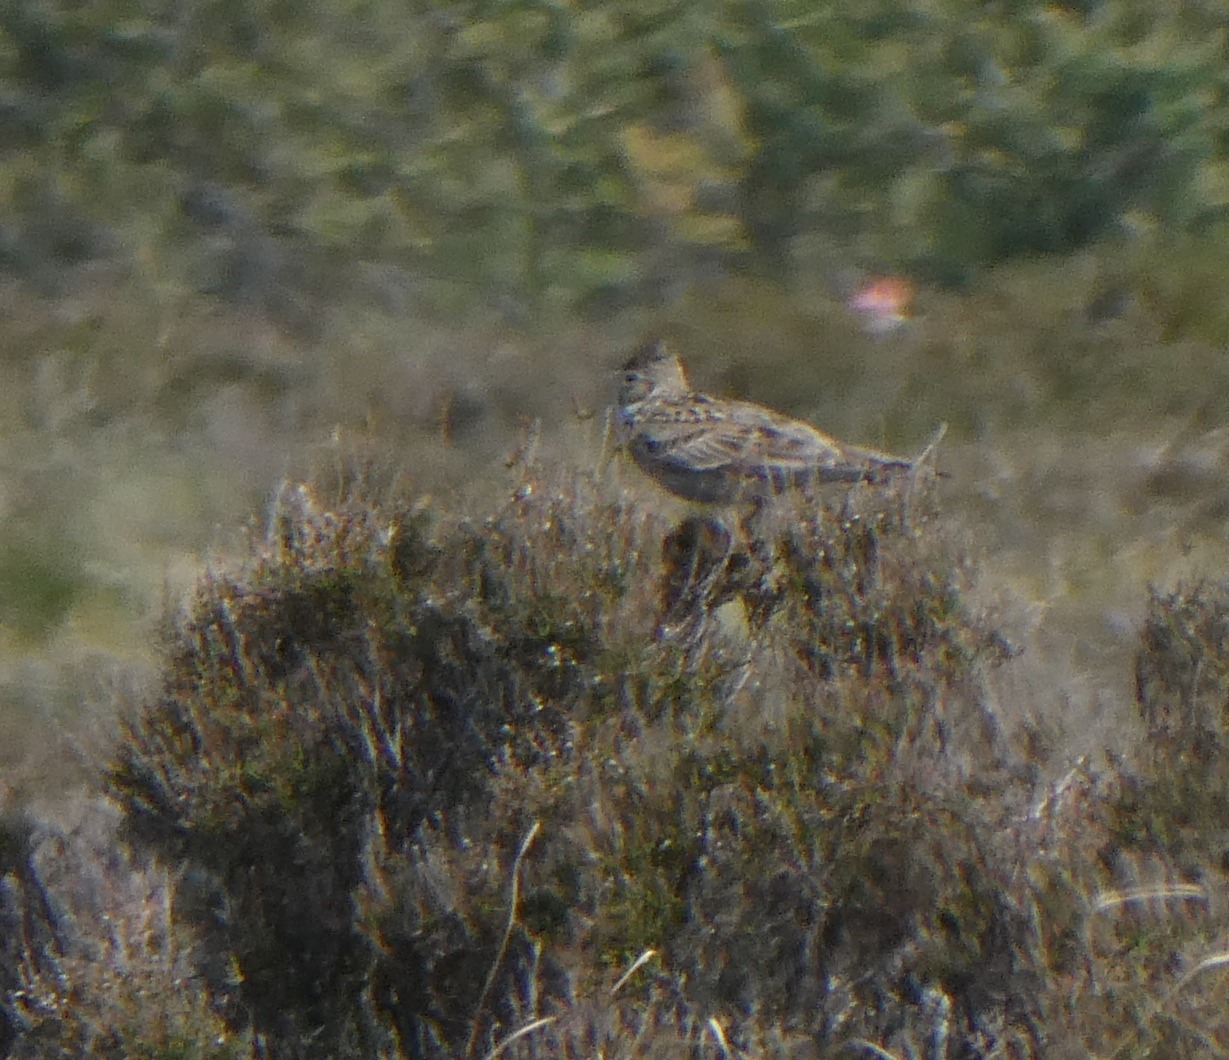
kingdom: Animalia
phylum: Chordata
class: Aves
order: Passeriformes
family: Alaudidae
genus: Alauda
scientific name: Alauda arvensis
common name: Sanglærke
